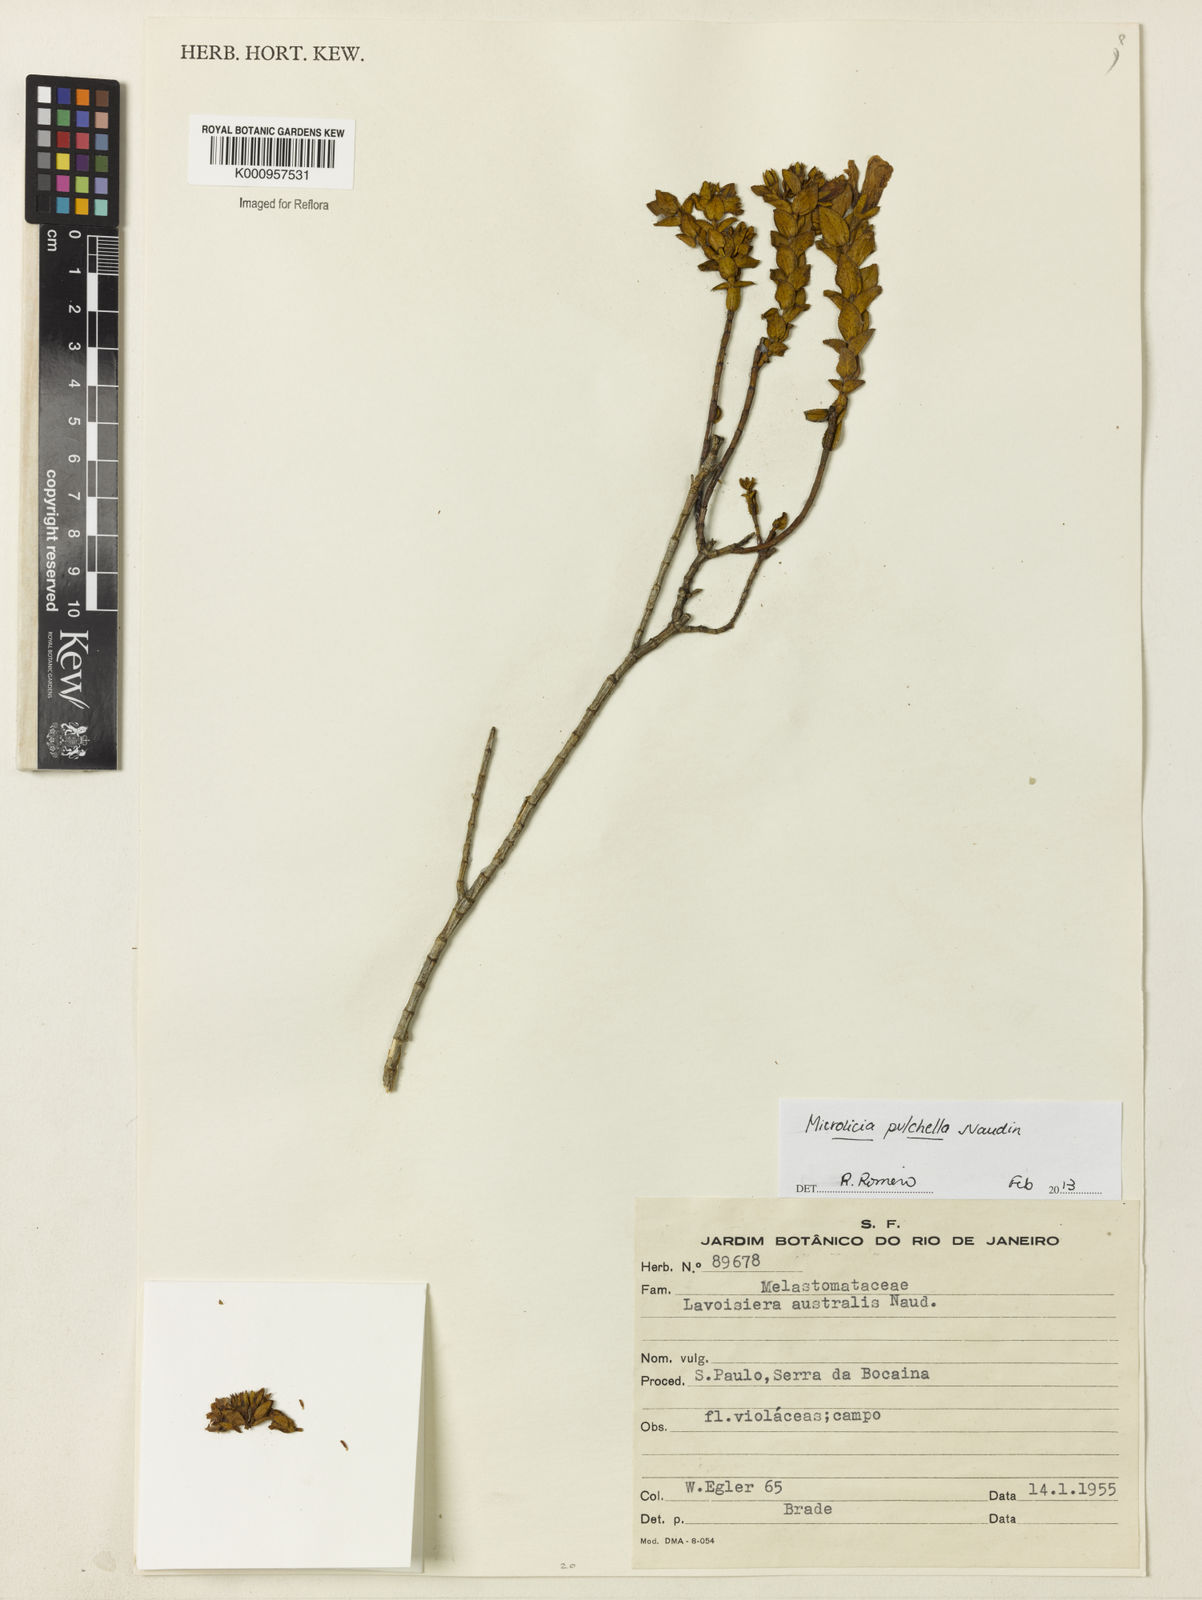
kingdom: Plantae
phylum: Tracheophyta
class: Magnoliopsida
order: Myrtales
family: Melastomataceae
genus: Microlicia
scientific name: Microlicia australis
